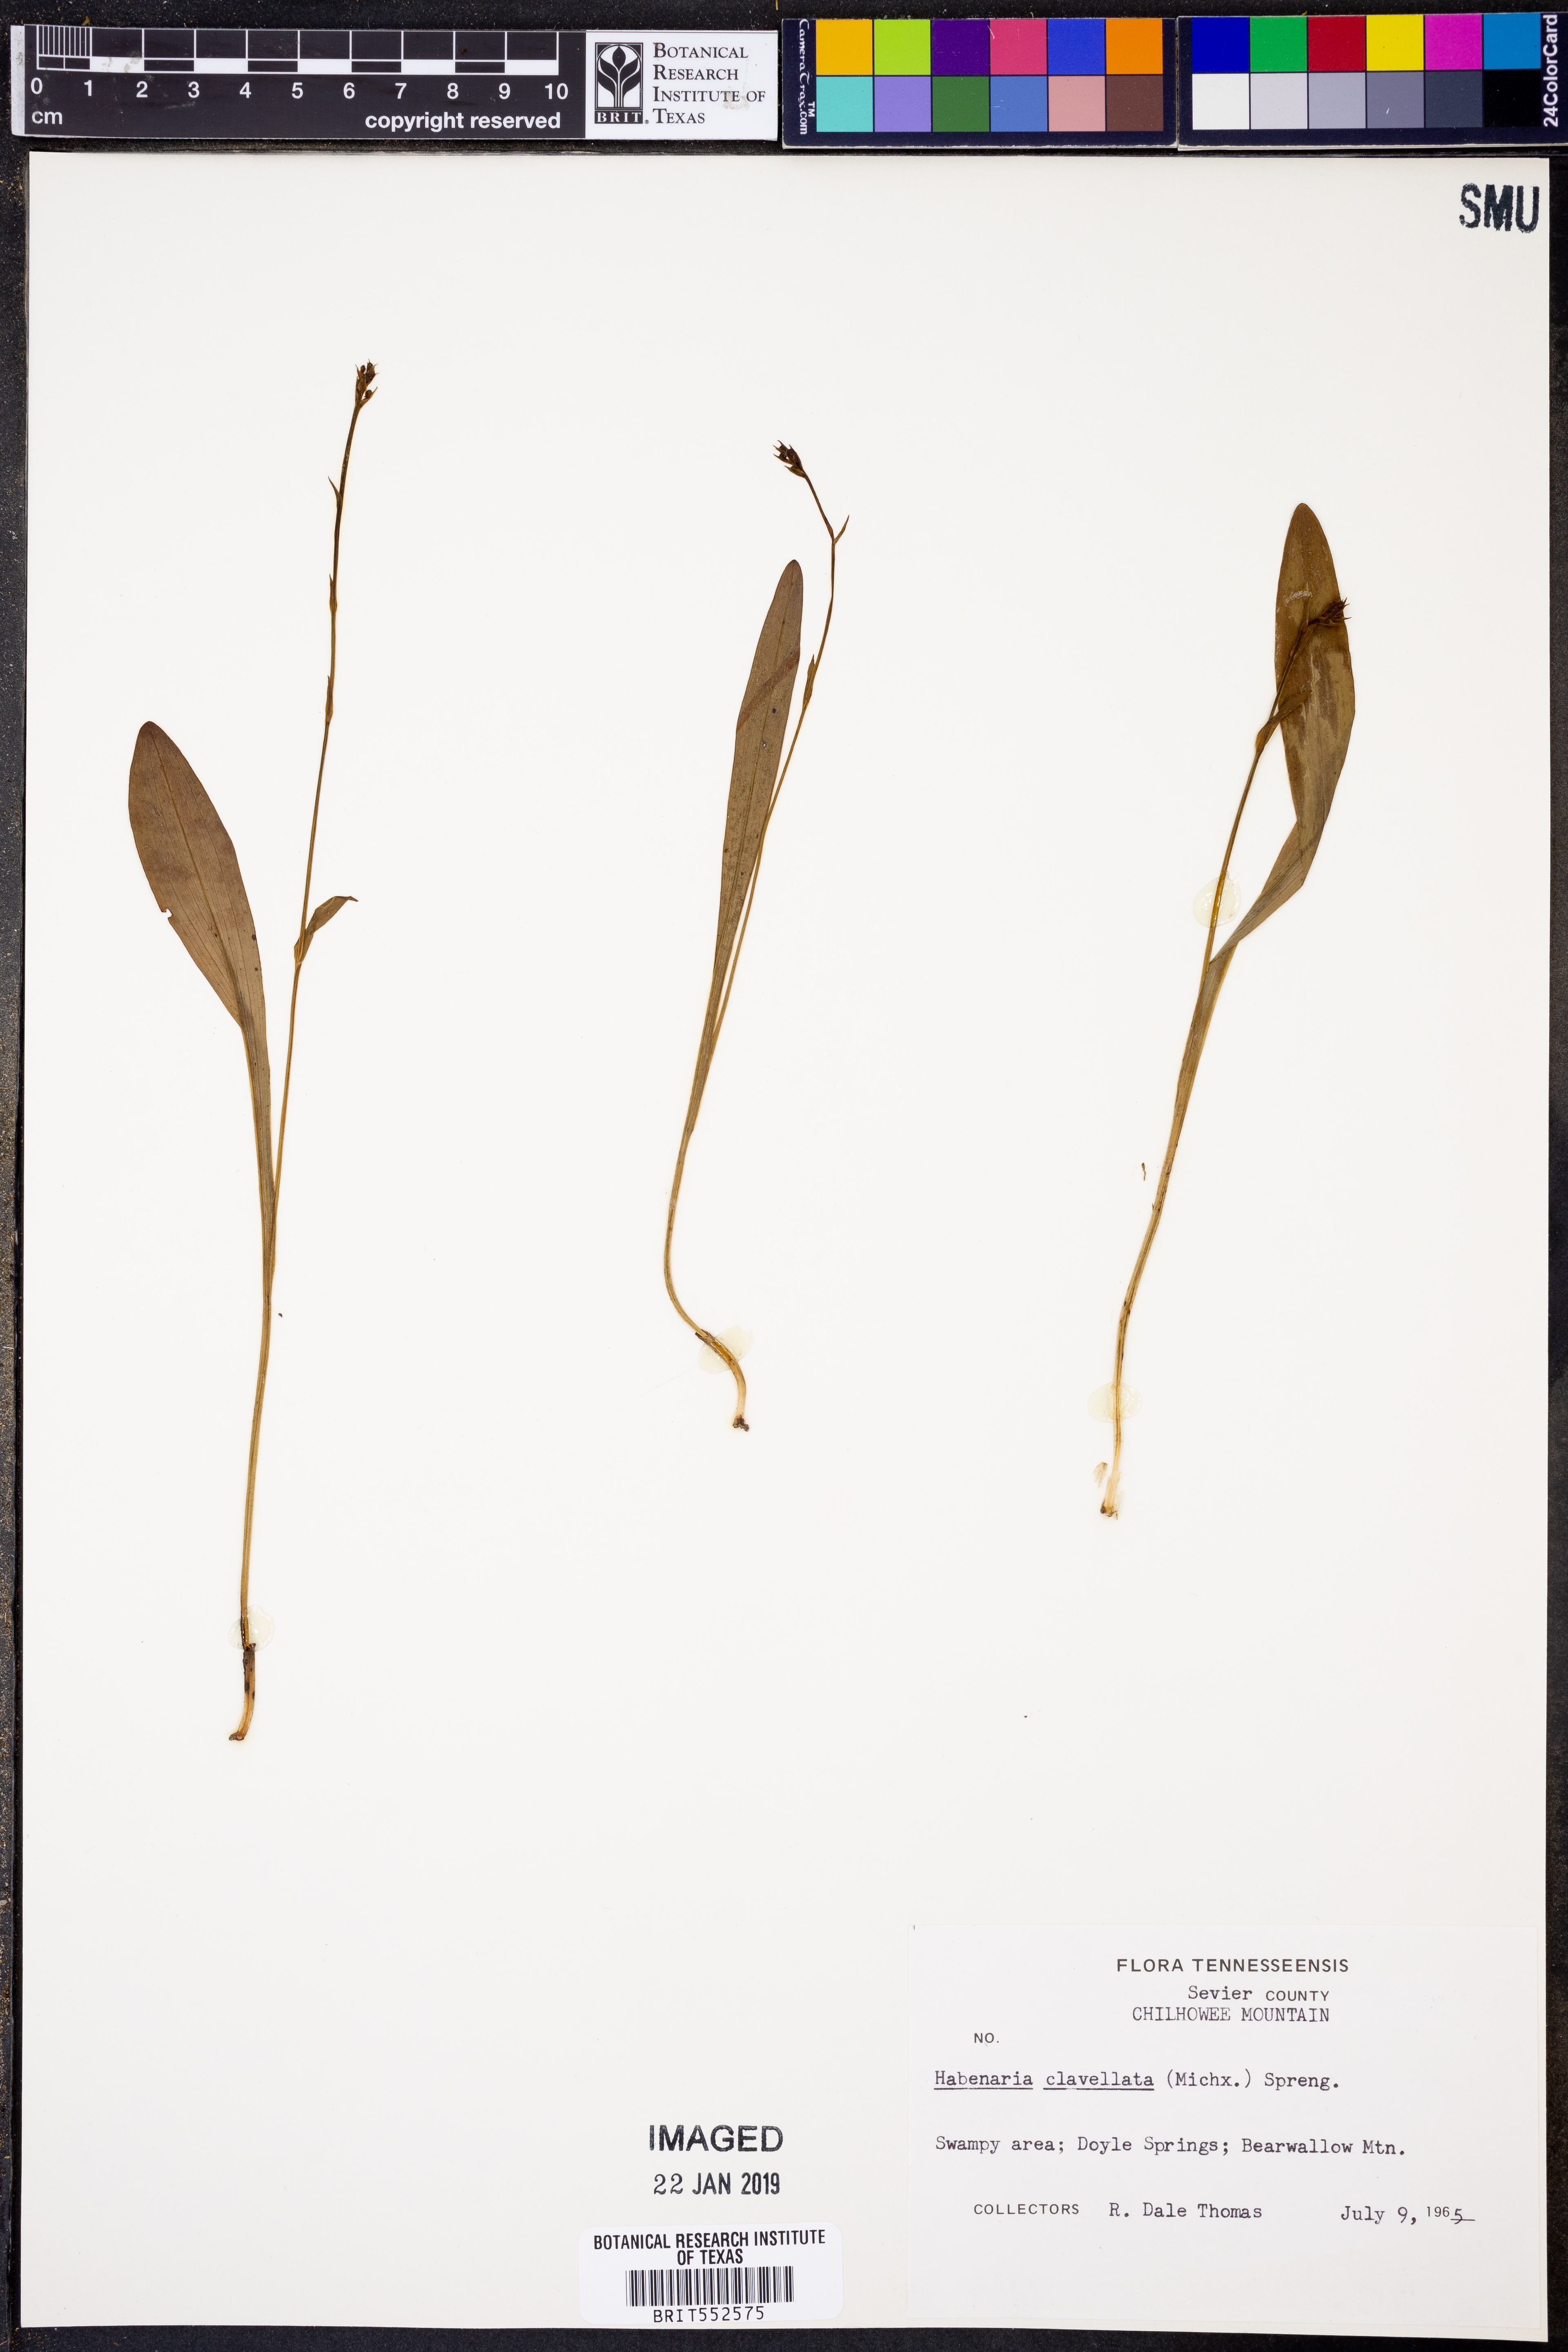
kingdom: Plantae
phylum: Tracheophyta
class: Liliopsida
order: Asparagales
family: Orchidaceae
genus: Platanthera
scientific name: Platanthera clavellata
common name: Club-spur orchid
